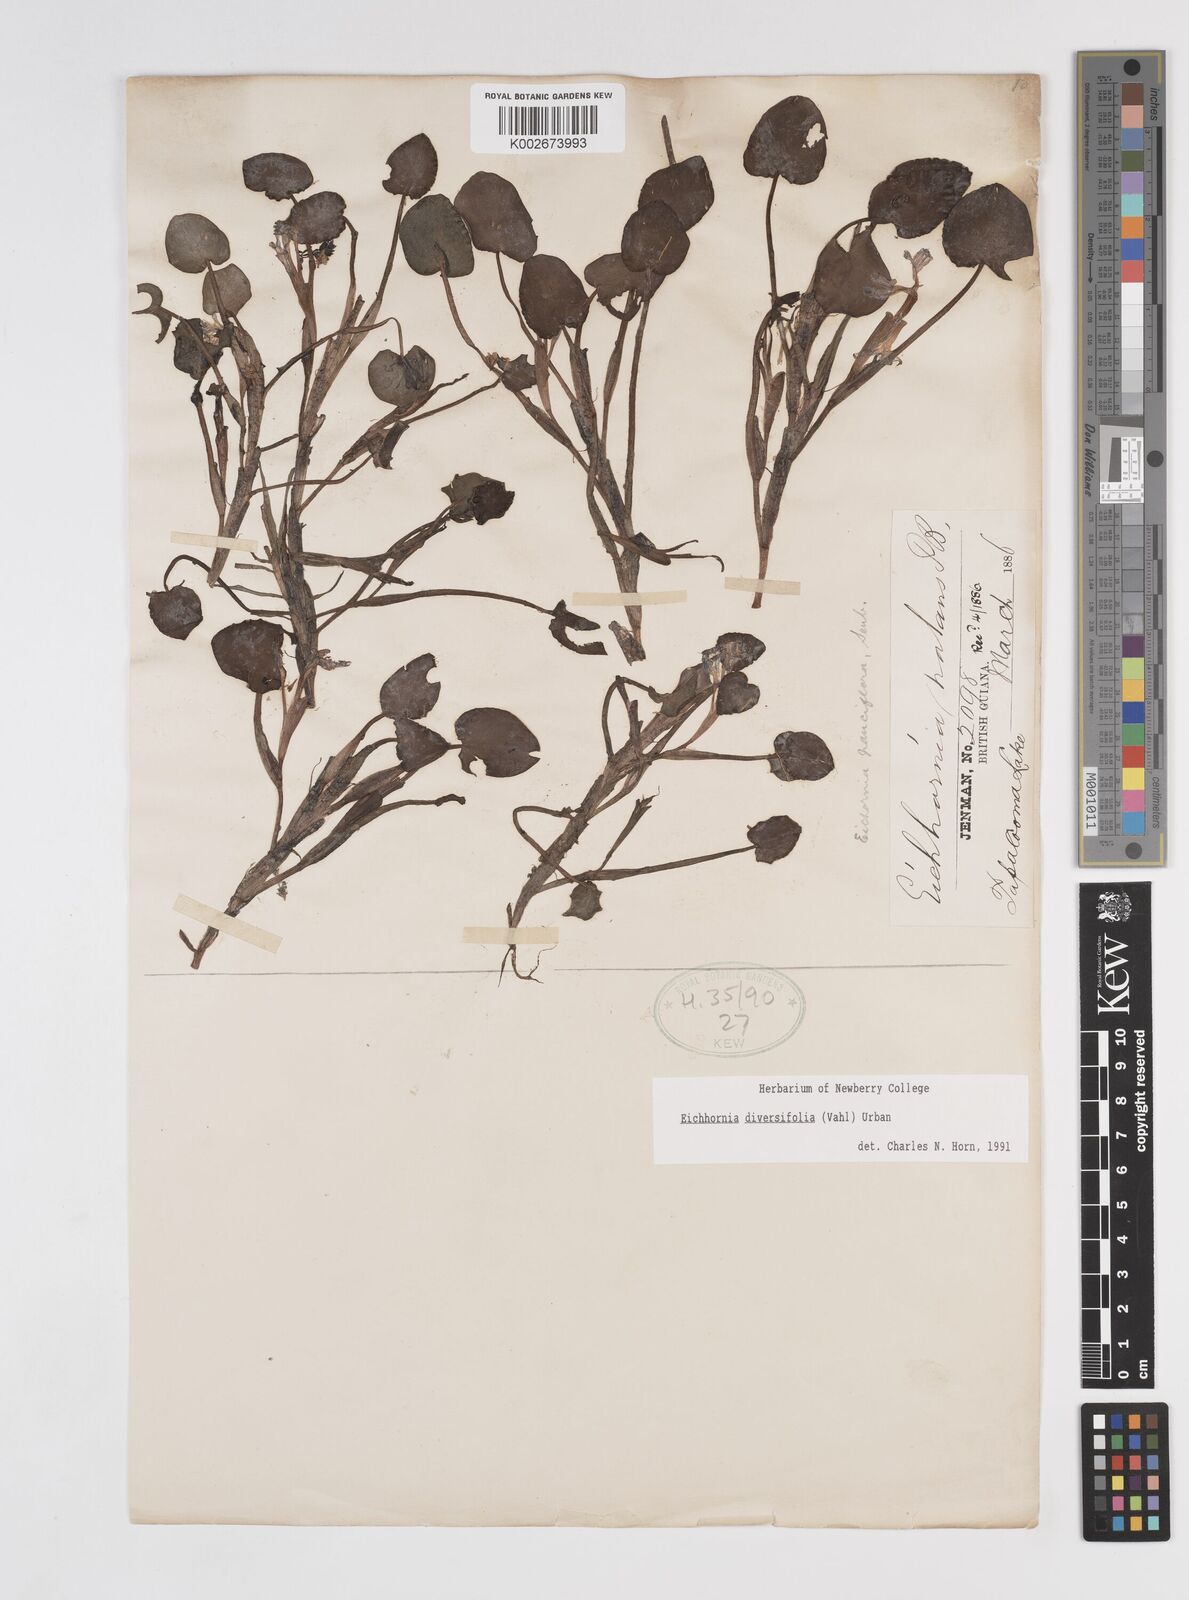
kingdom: Plantae
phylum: Tracheophyta
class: Liliopsida
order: Commelinales
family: Pontederiaceae
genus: Pontederia
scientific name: Pontederia diversifolia
